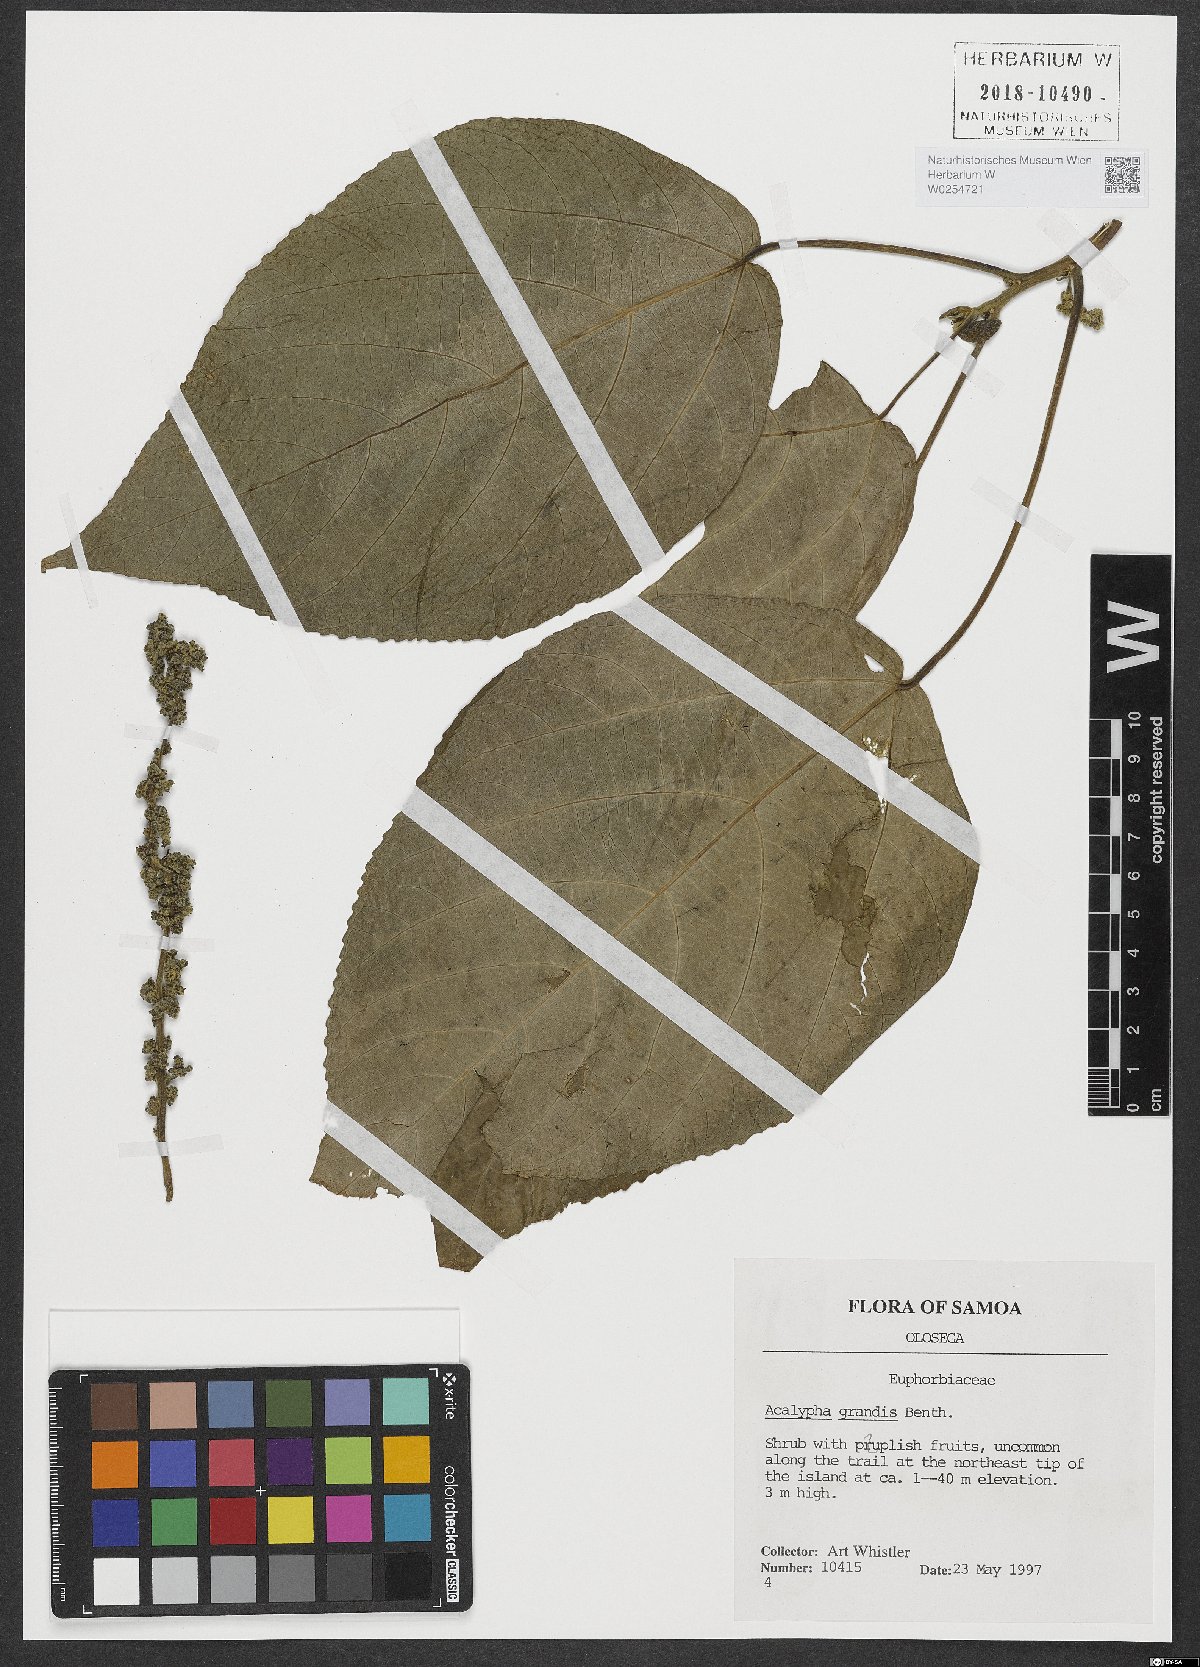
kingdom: Plantae
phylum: Tracheophyta
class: Magnoliopsida
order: Malpighiales
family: Euphorbiaceae
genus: Acalypha
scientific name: Acalypha grandis
